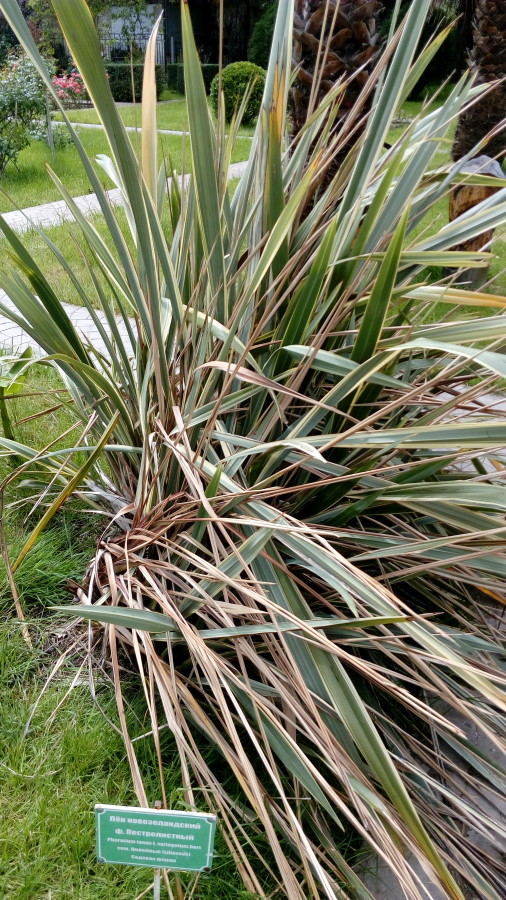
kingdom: Plantae
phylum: Tracheophyta
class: Liliopsida
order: Asparagales
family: Asphodelaceae
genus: Phormium
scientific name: Phormium tenax
